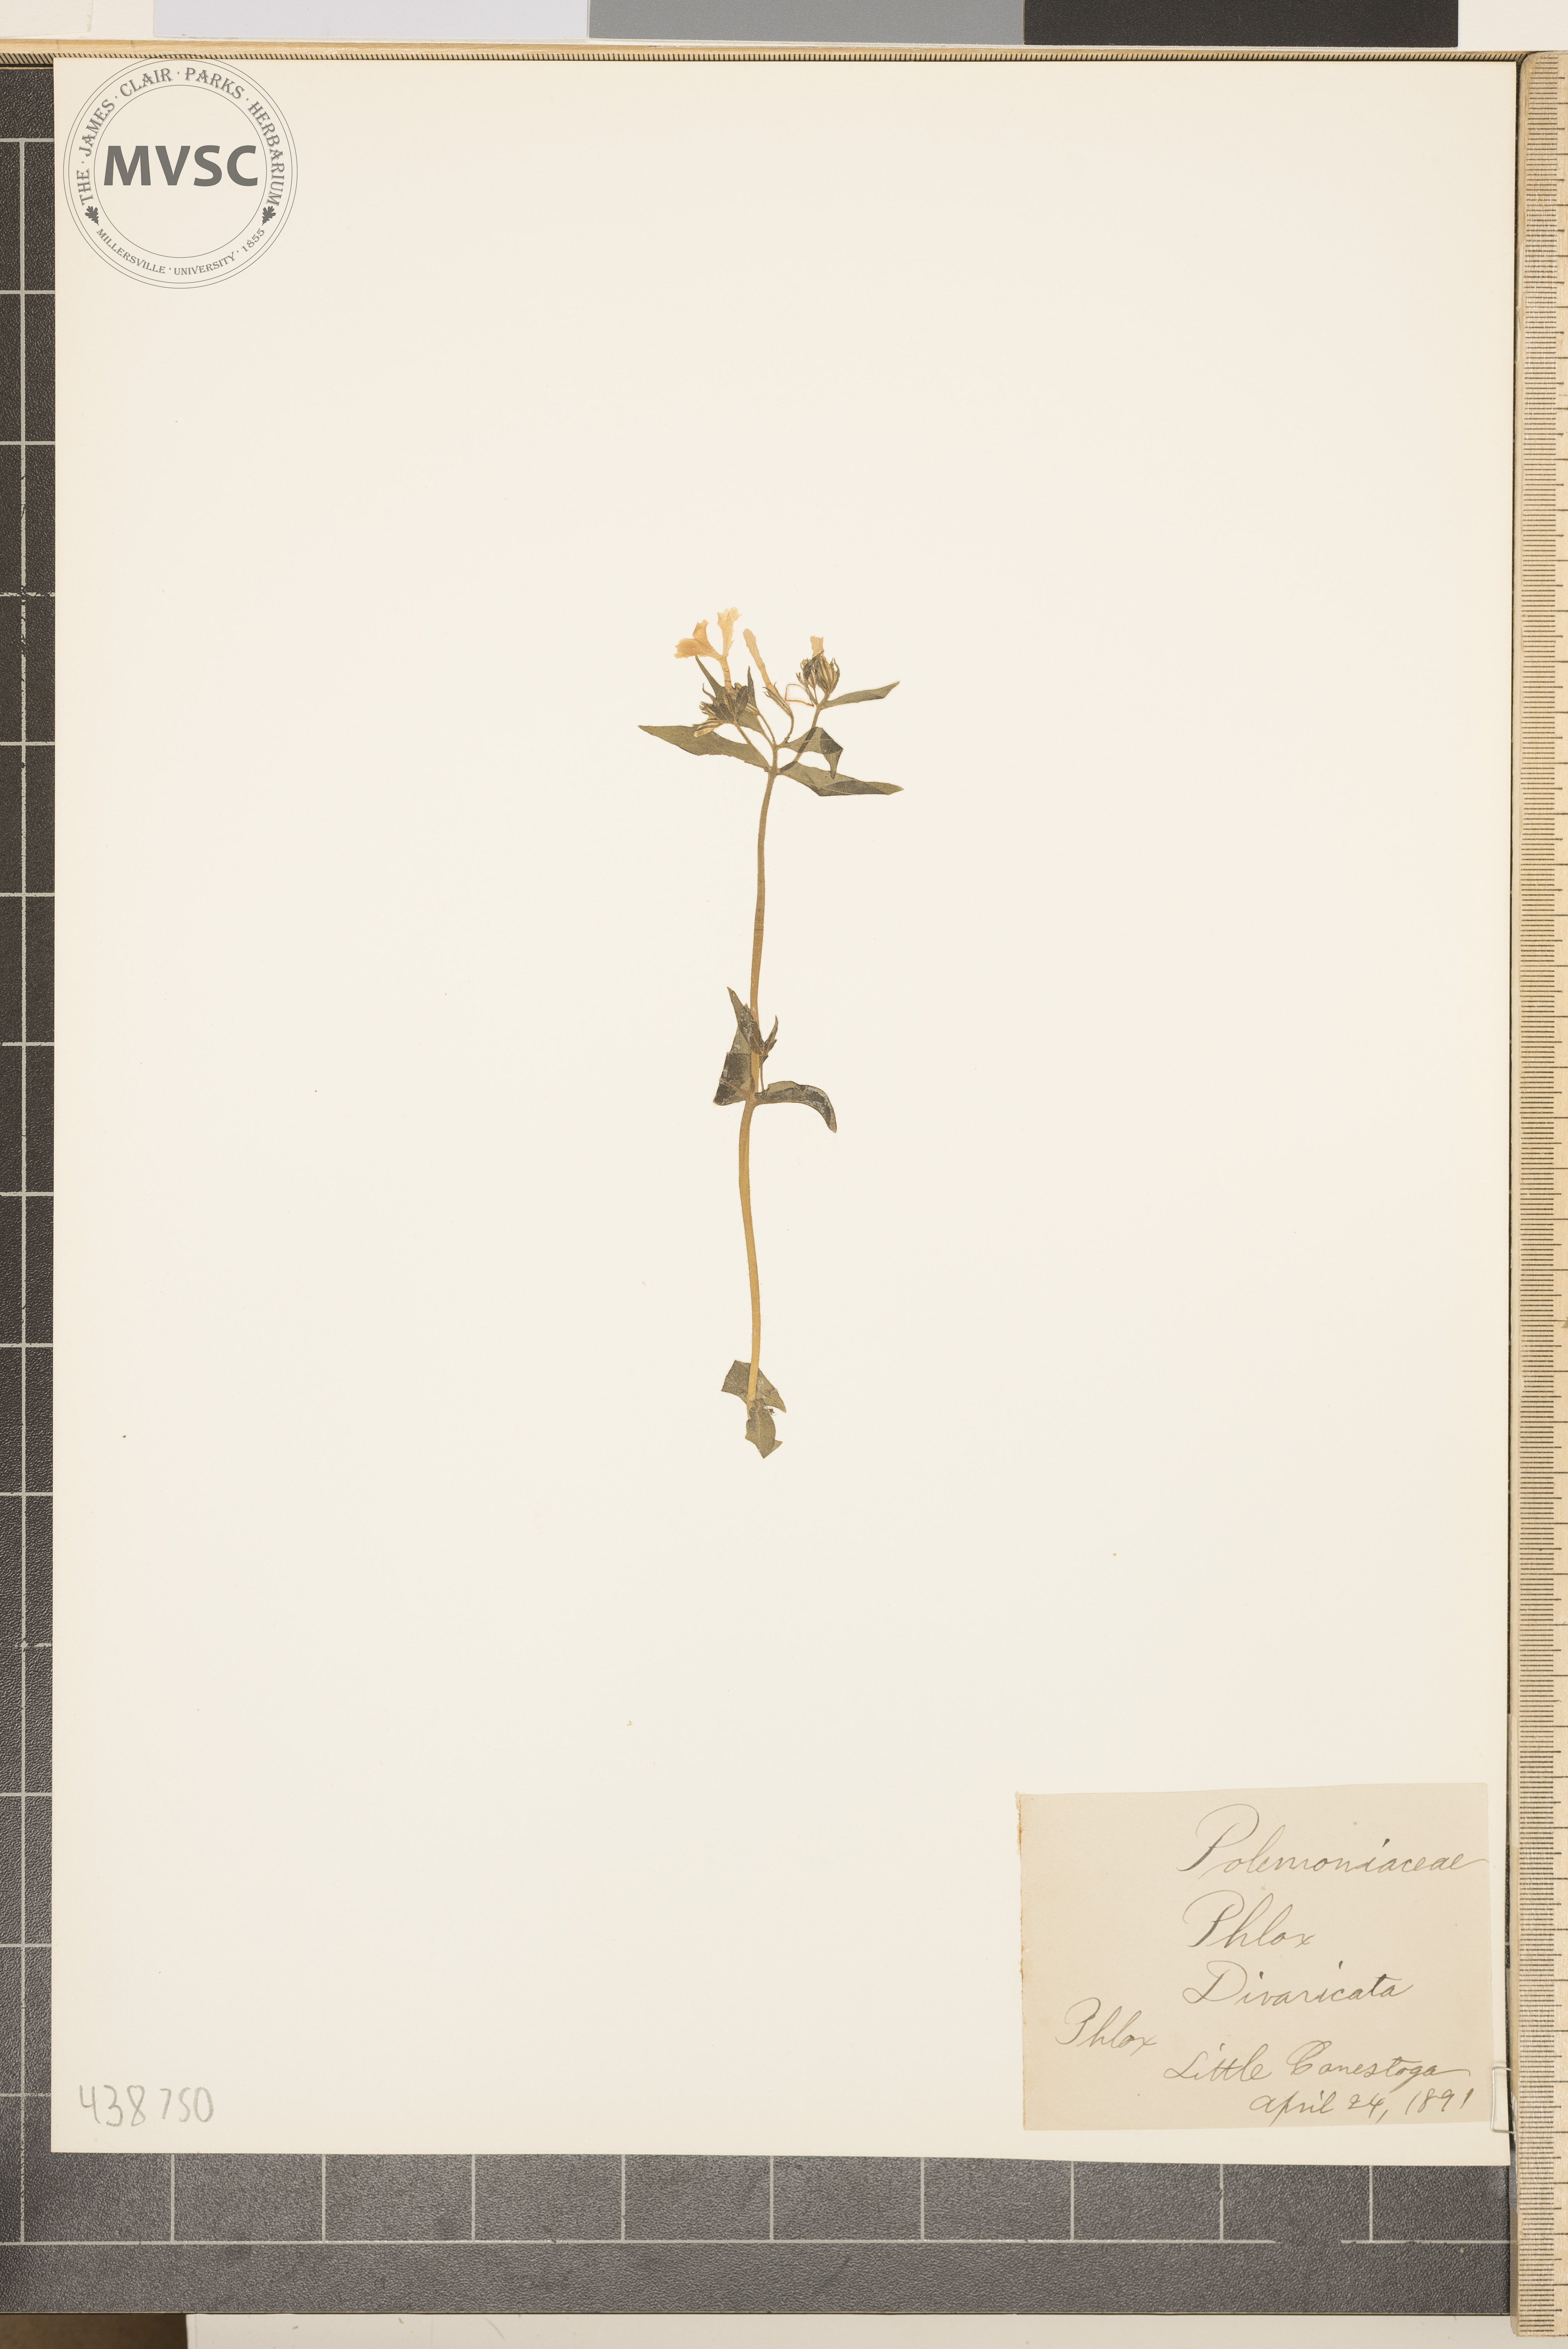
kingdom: Plantae
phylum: Tracheophyta
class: Magnoliopsida
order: Ericales
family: Polemoniaceae
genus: Phlox
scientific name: Phlox divaricata
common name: Phlox
